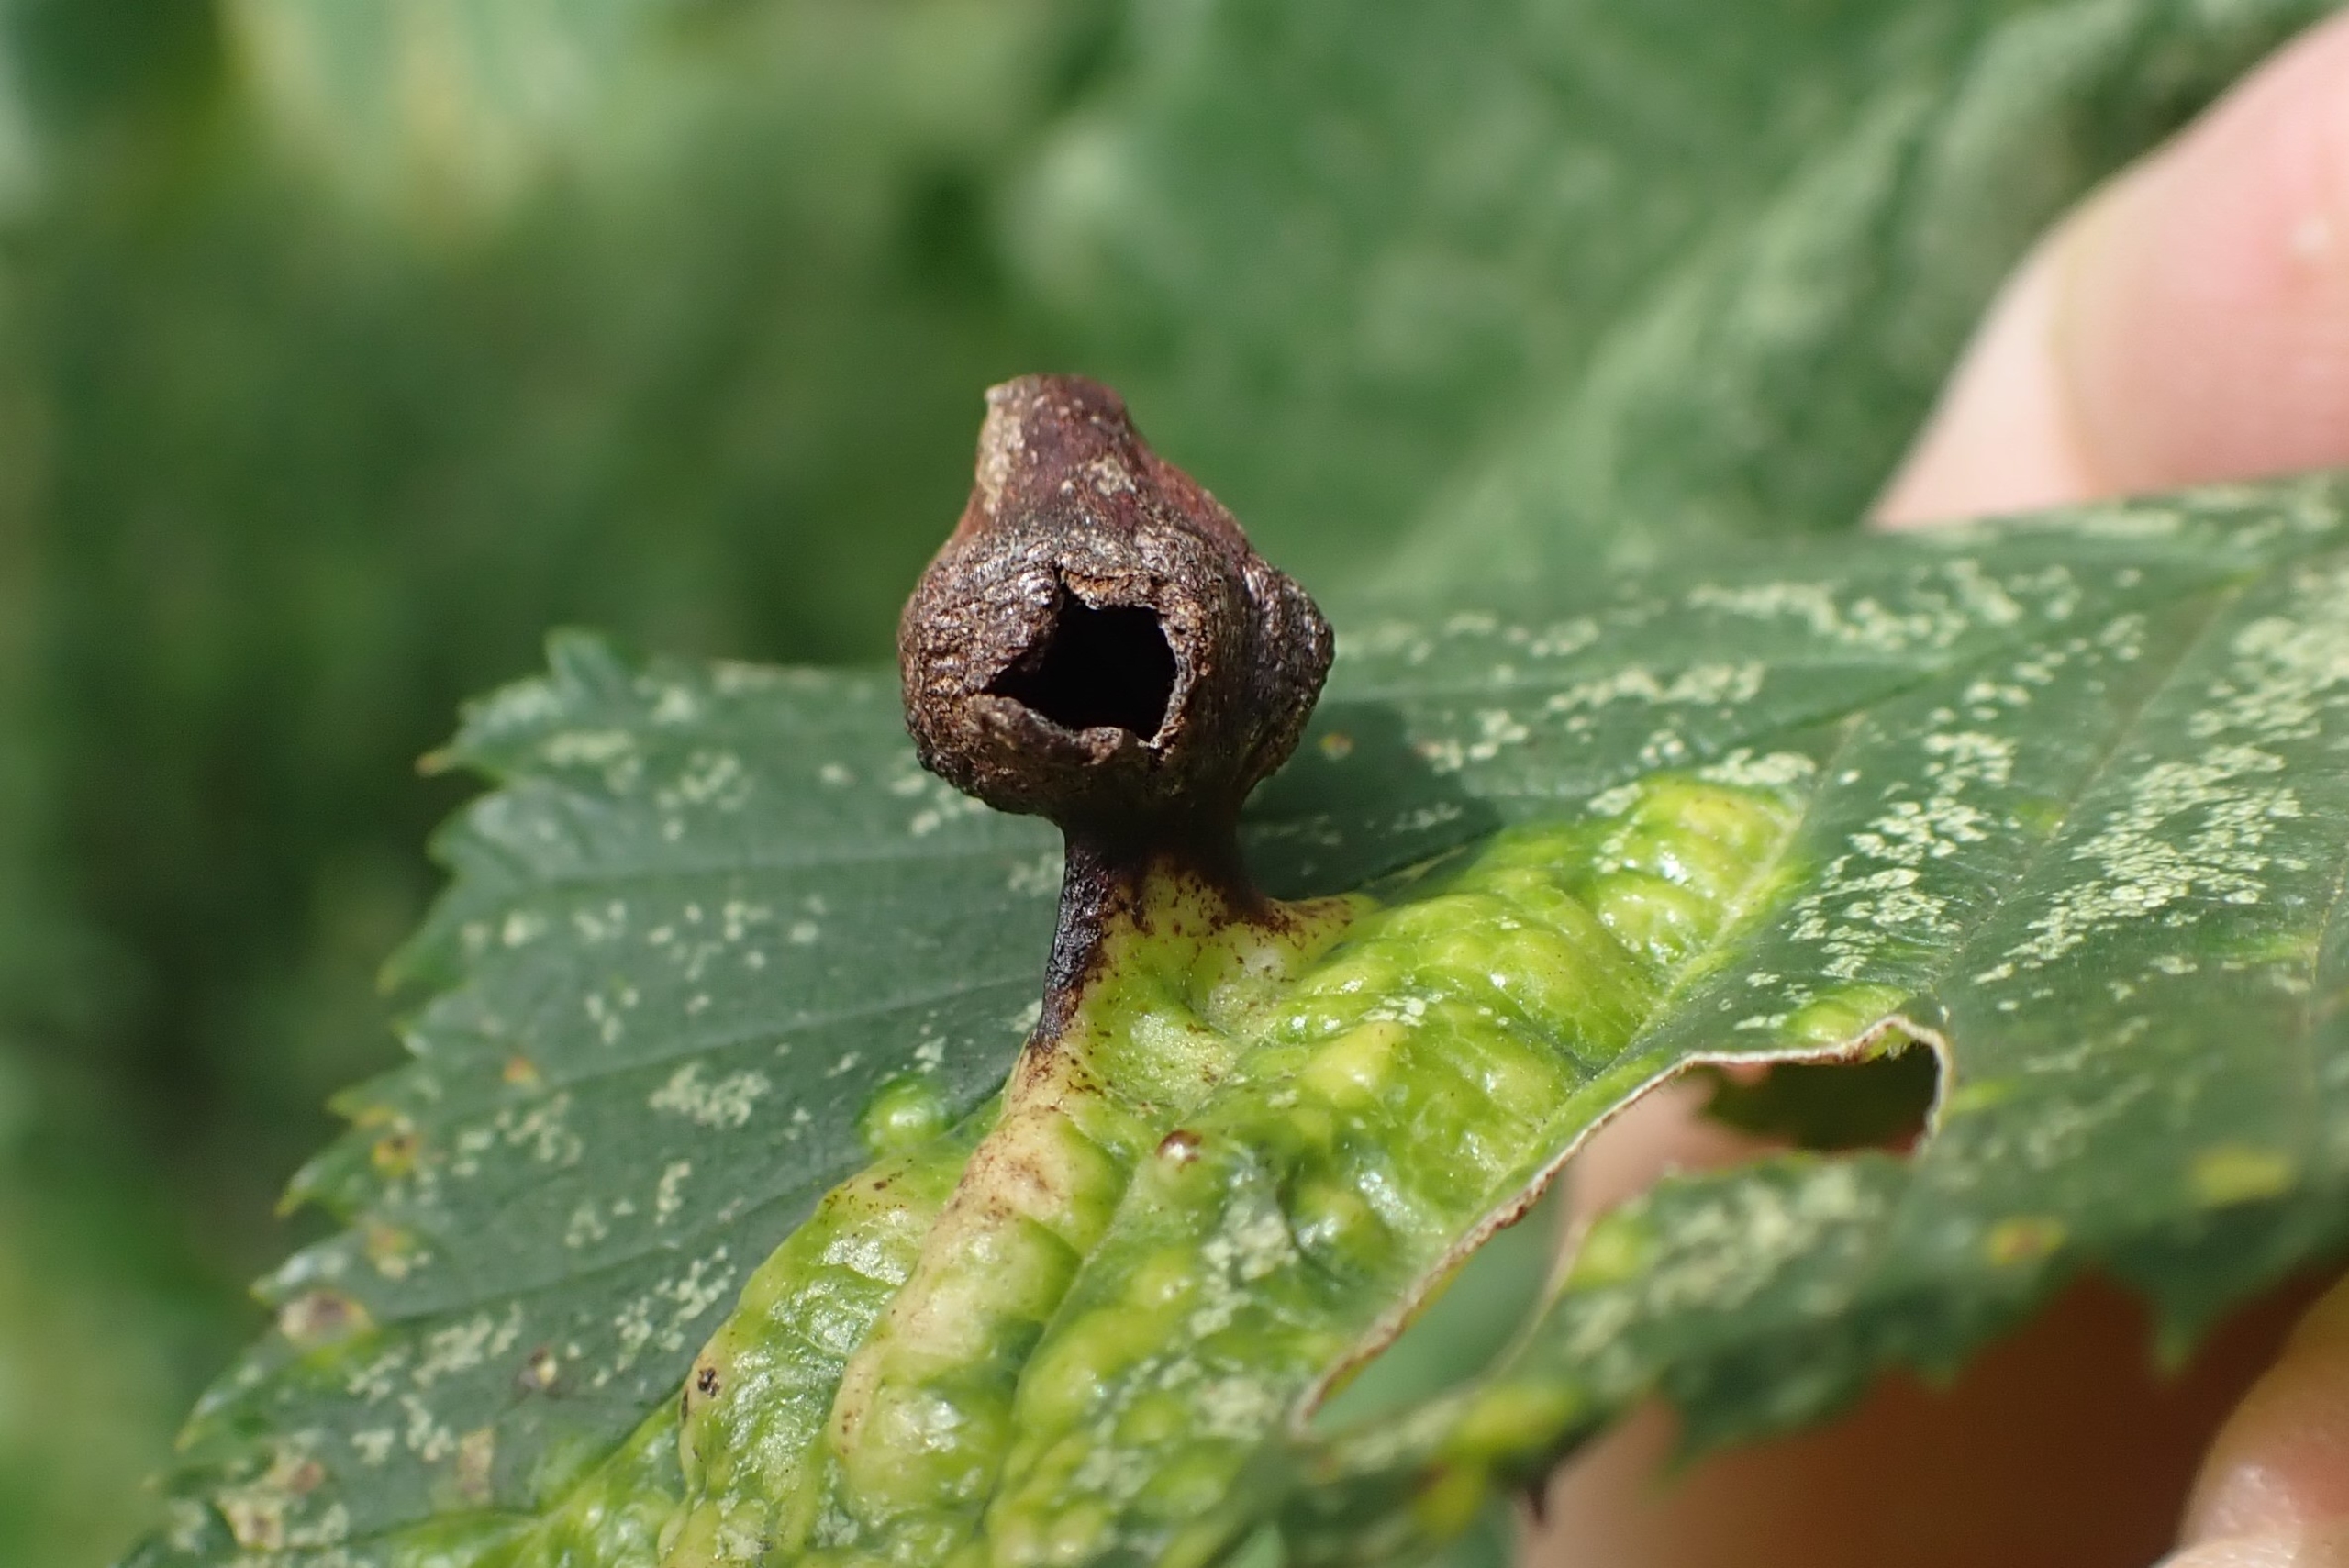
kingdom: Animalia
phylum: Arthropoda
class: Insecta
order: Hemiptera
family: Aphididae
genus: Tetraneura
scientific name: Tetraneura ulmi
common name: Elmegallelus
